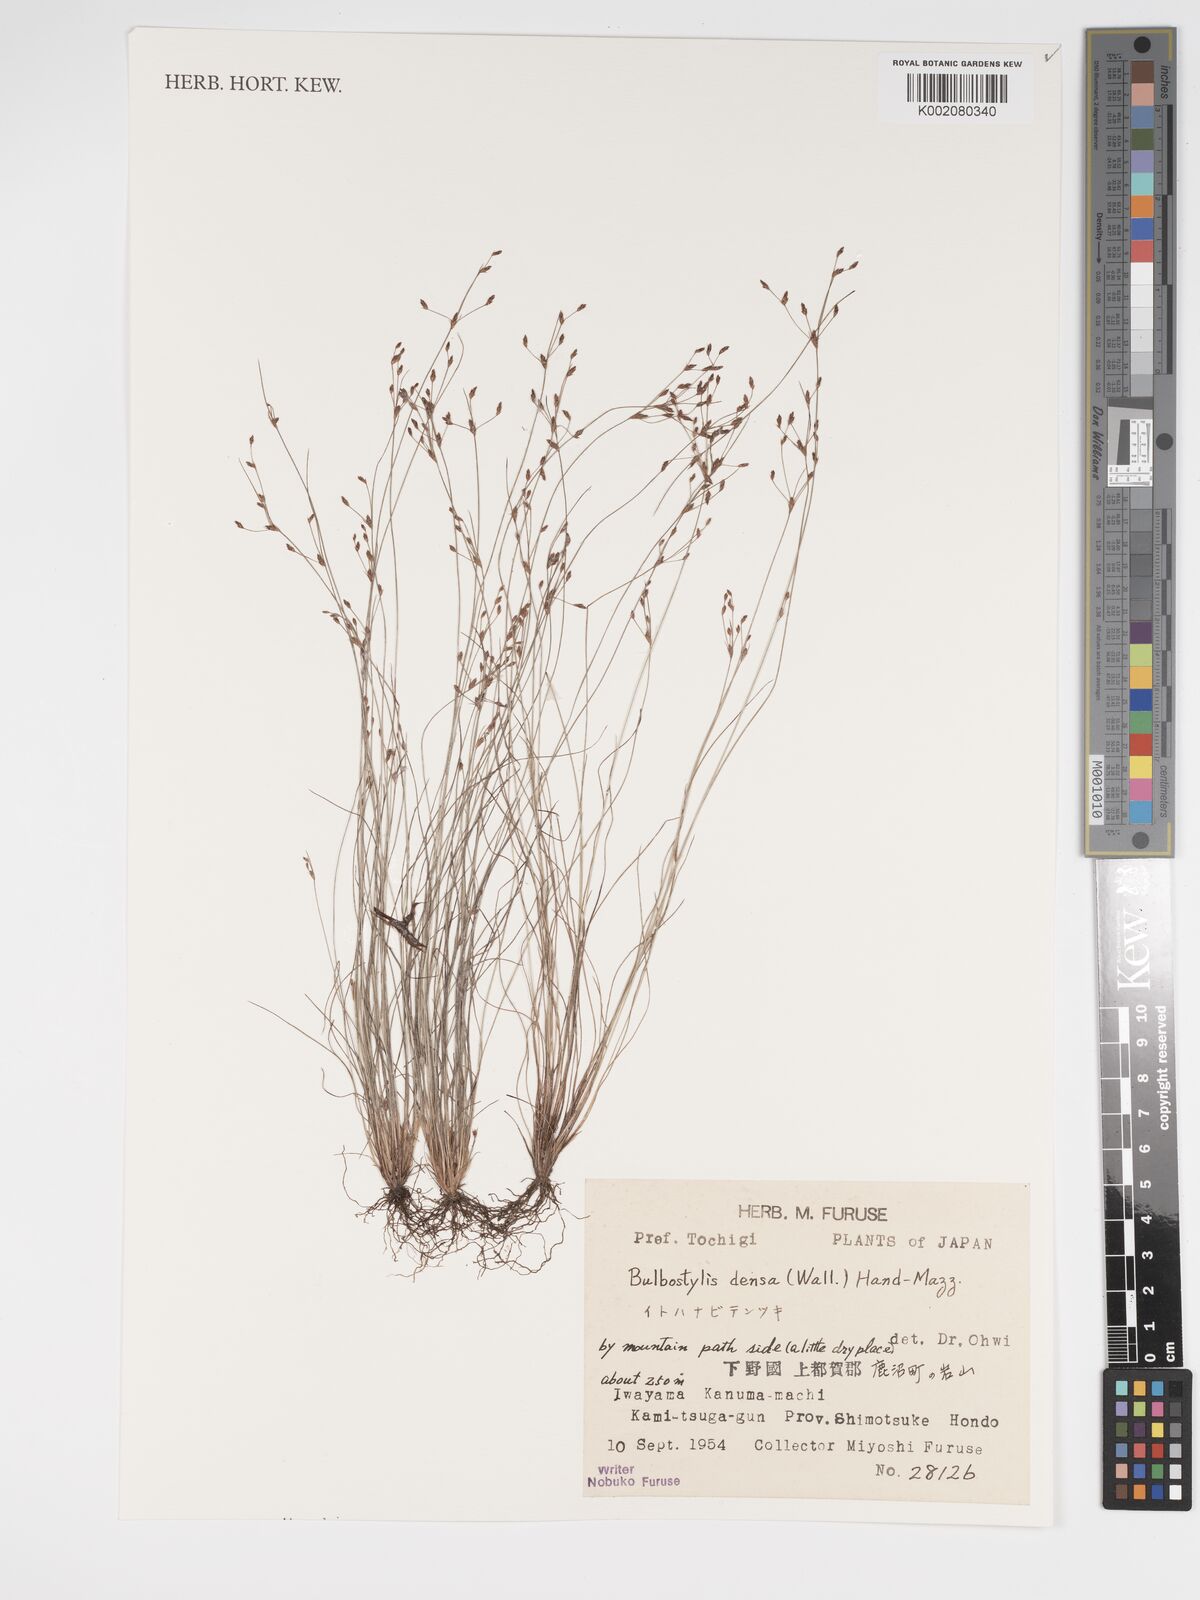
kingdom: Plantae
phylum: Tracheophyta
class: Liliopsida
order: Poales
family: Cyperaceae
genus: Bulbostylis
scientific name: Bulbostylis densa
